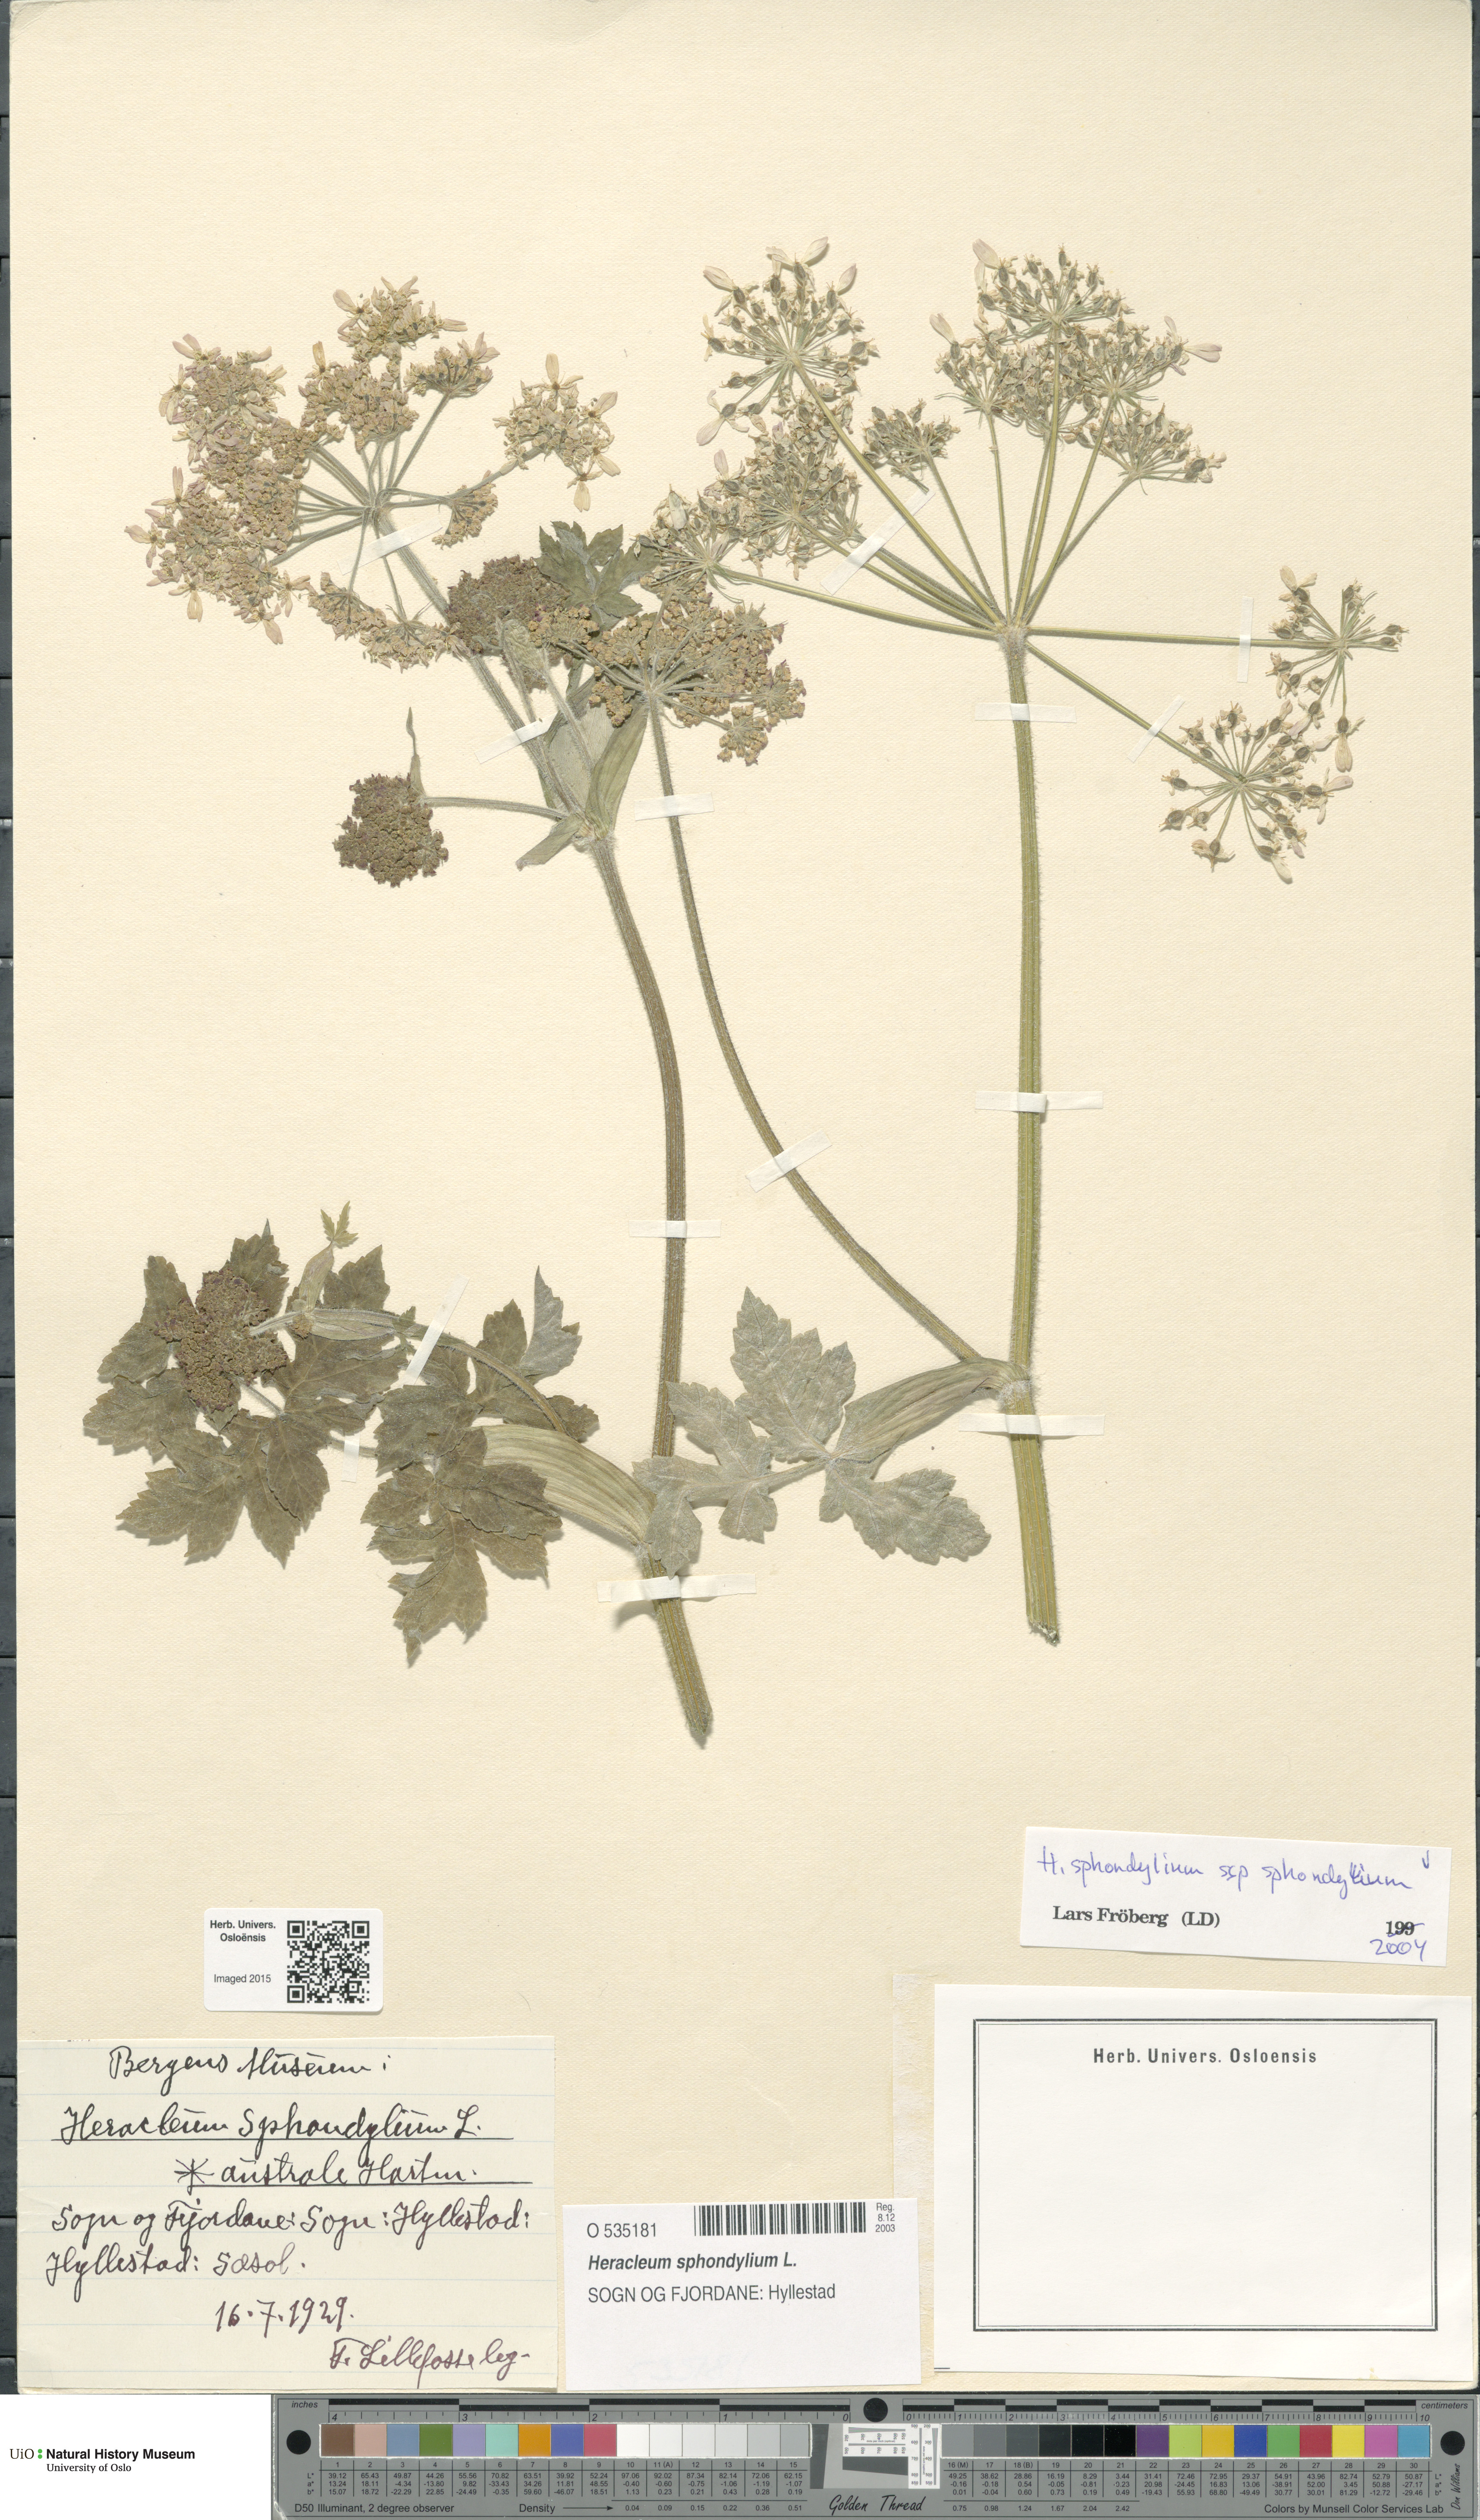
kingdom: Plantae
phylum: Tracheophyta
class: Magnoliopsida
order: Apiales
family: Apiaceae
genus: Heracleum
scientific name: Heracleum sphondylium
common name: Hogweed
